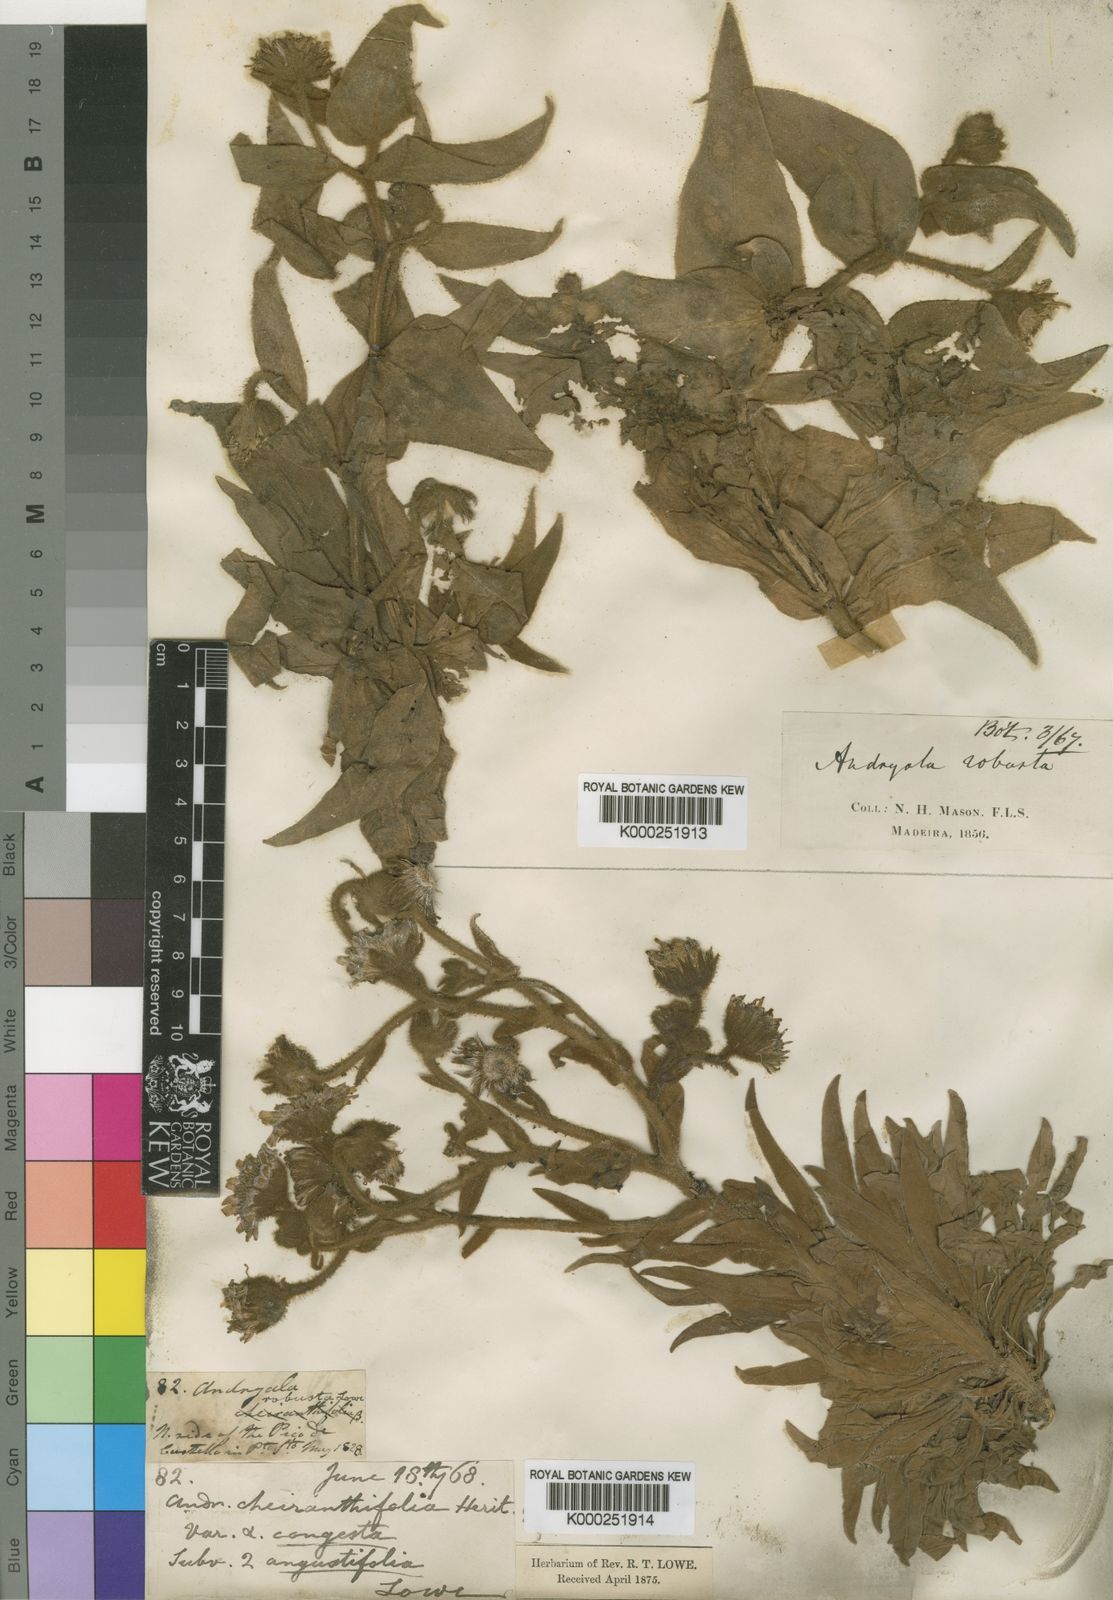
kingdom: Plantae
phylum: Tracheophyta
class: Magnoliopsida
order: Asterales
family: Asteraceae
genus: Andryala
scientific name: Andryala glandulosa
